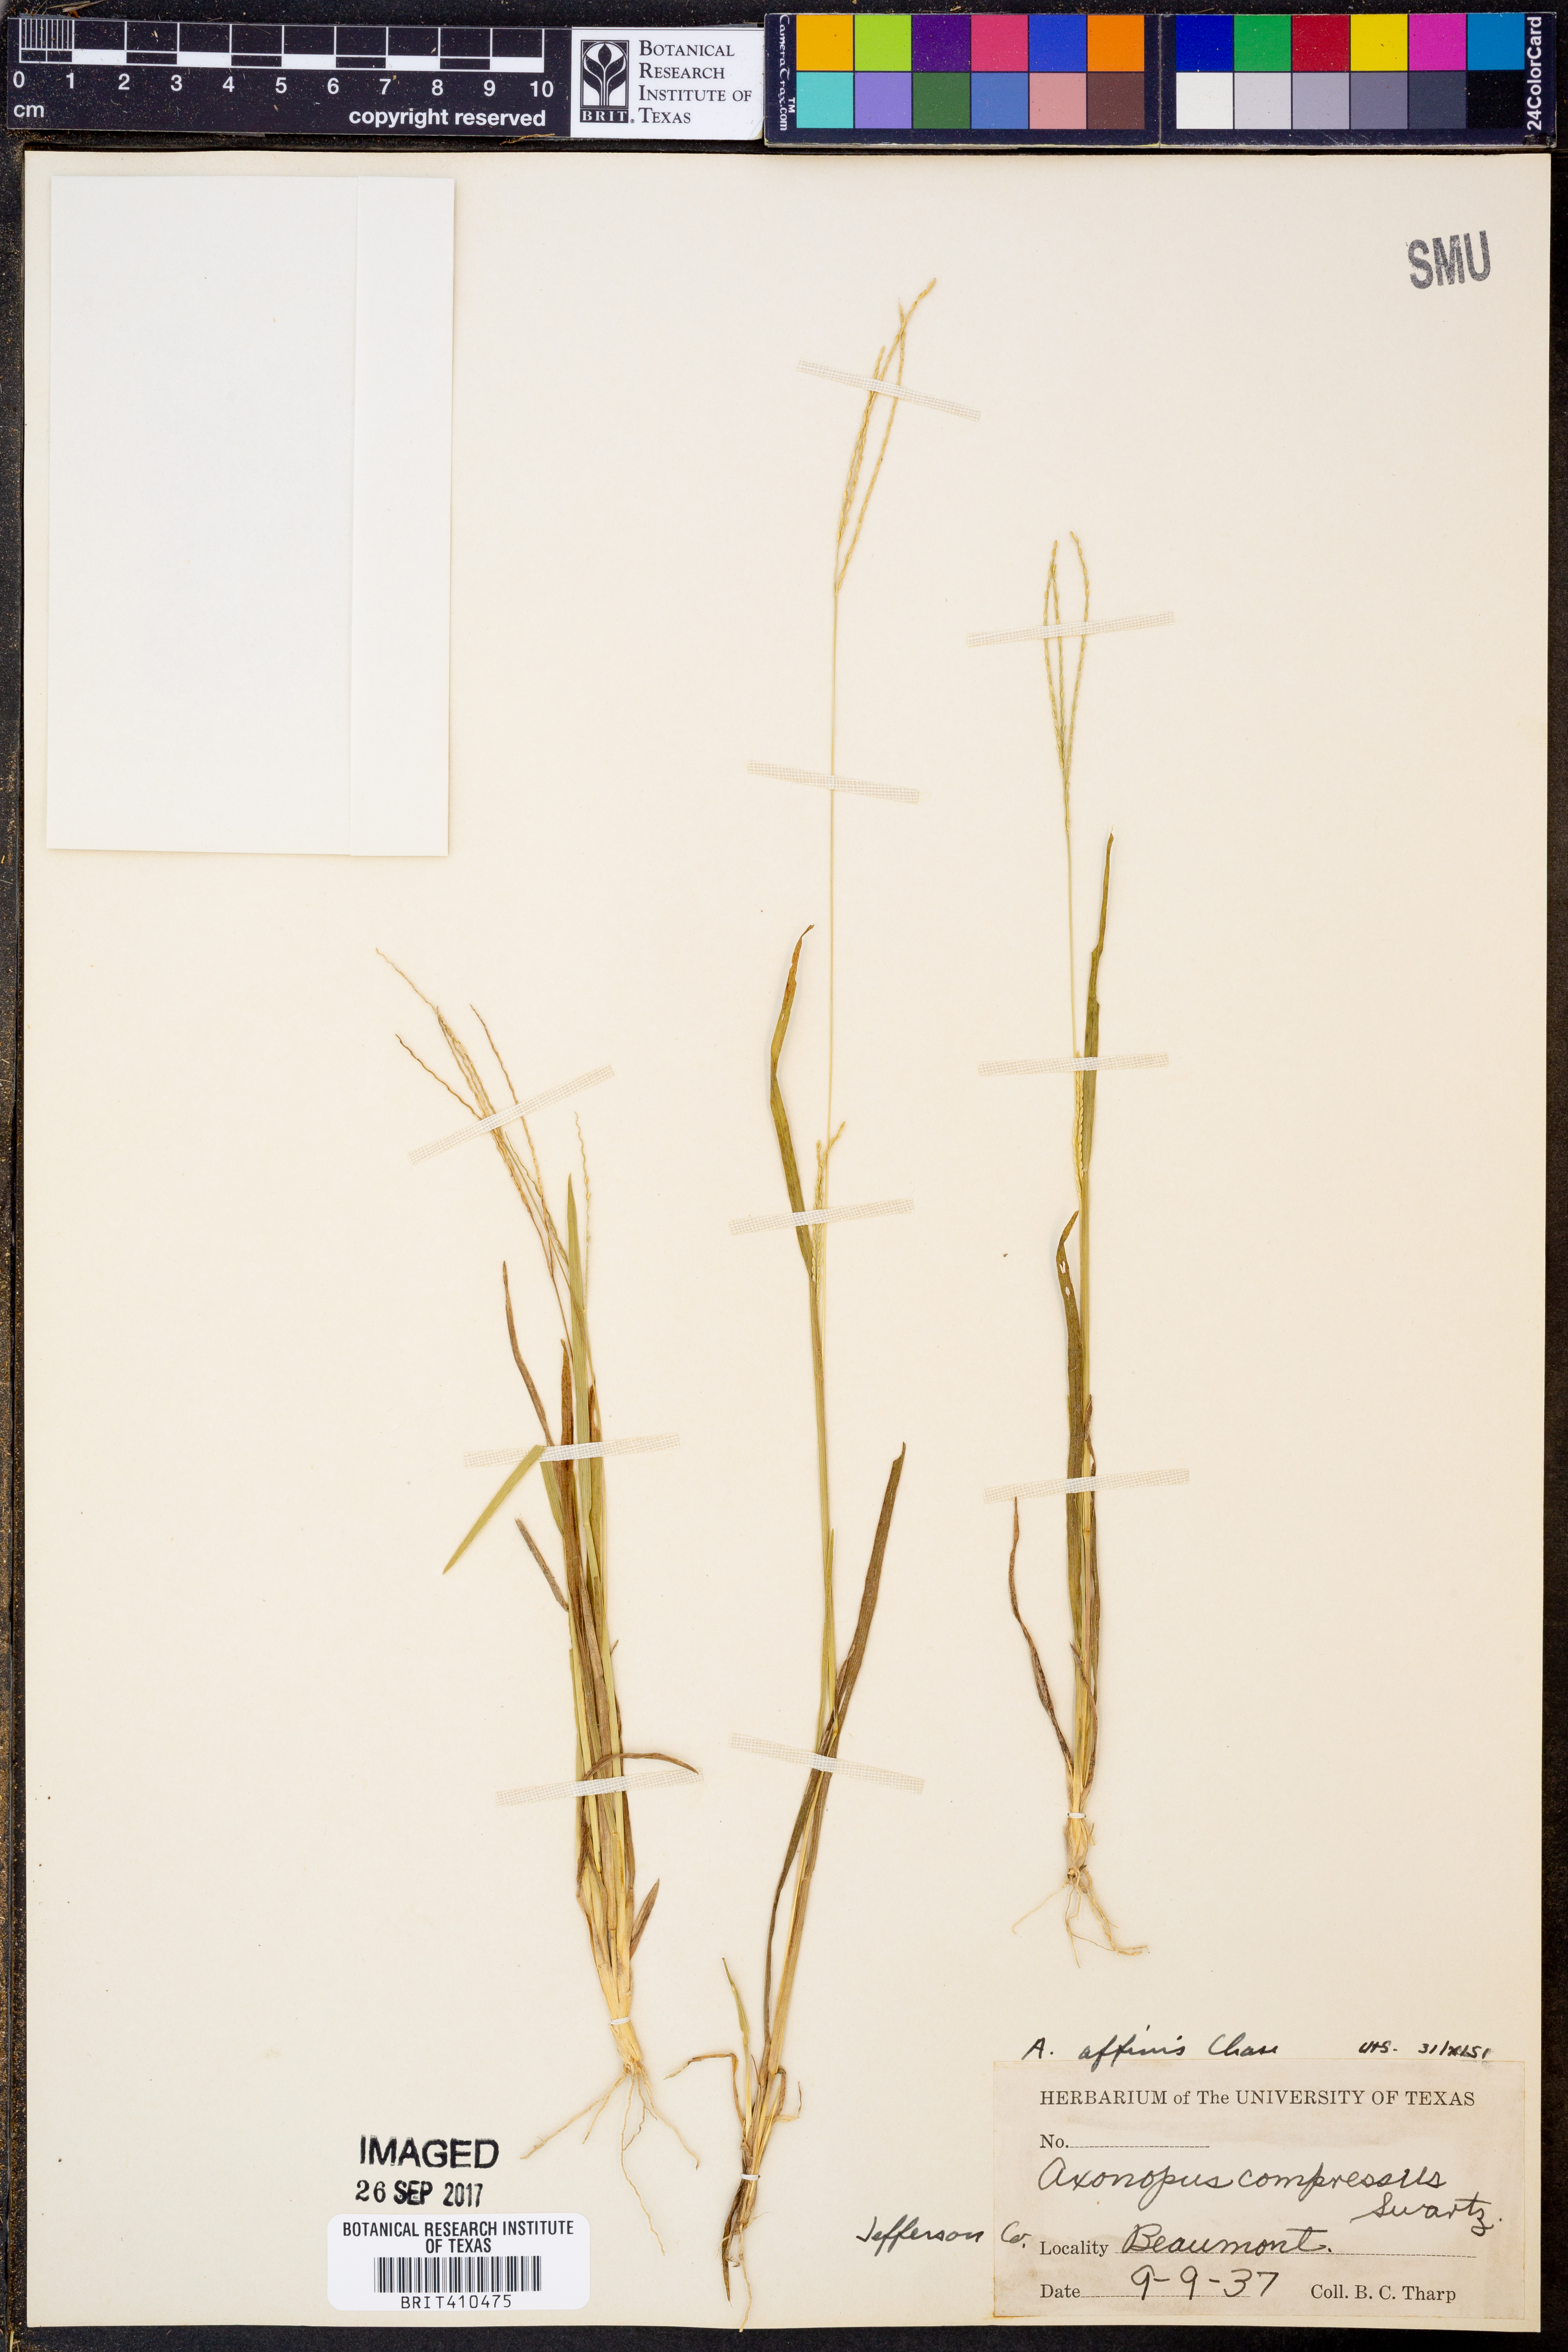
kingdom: Plantae
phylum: Tracheophyta
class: Liliopsida
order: Poales
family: Poaceae
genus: Axonopus
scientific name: Axonopus fissifolius
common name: Common carpetgrass
